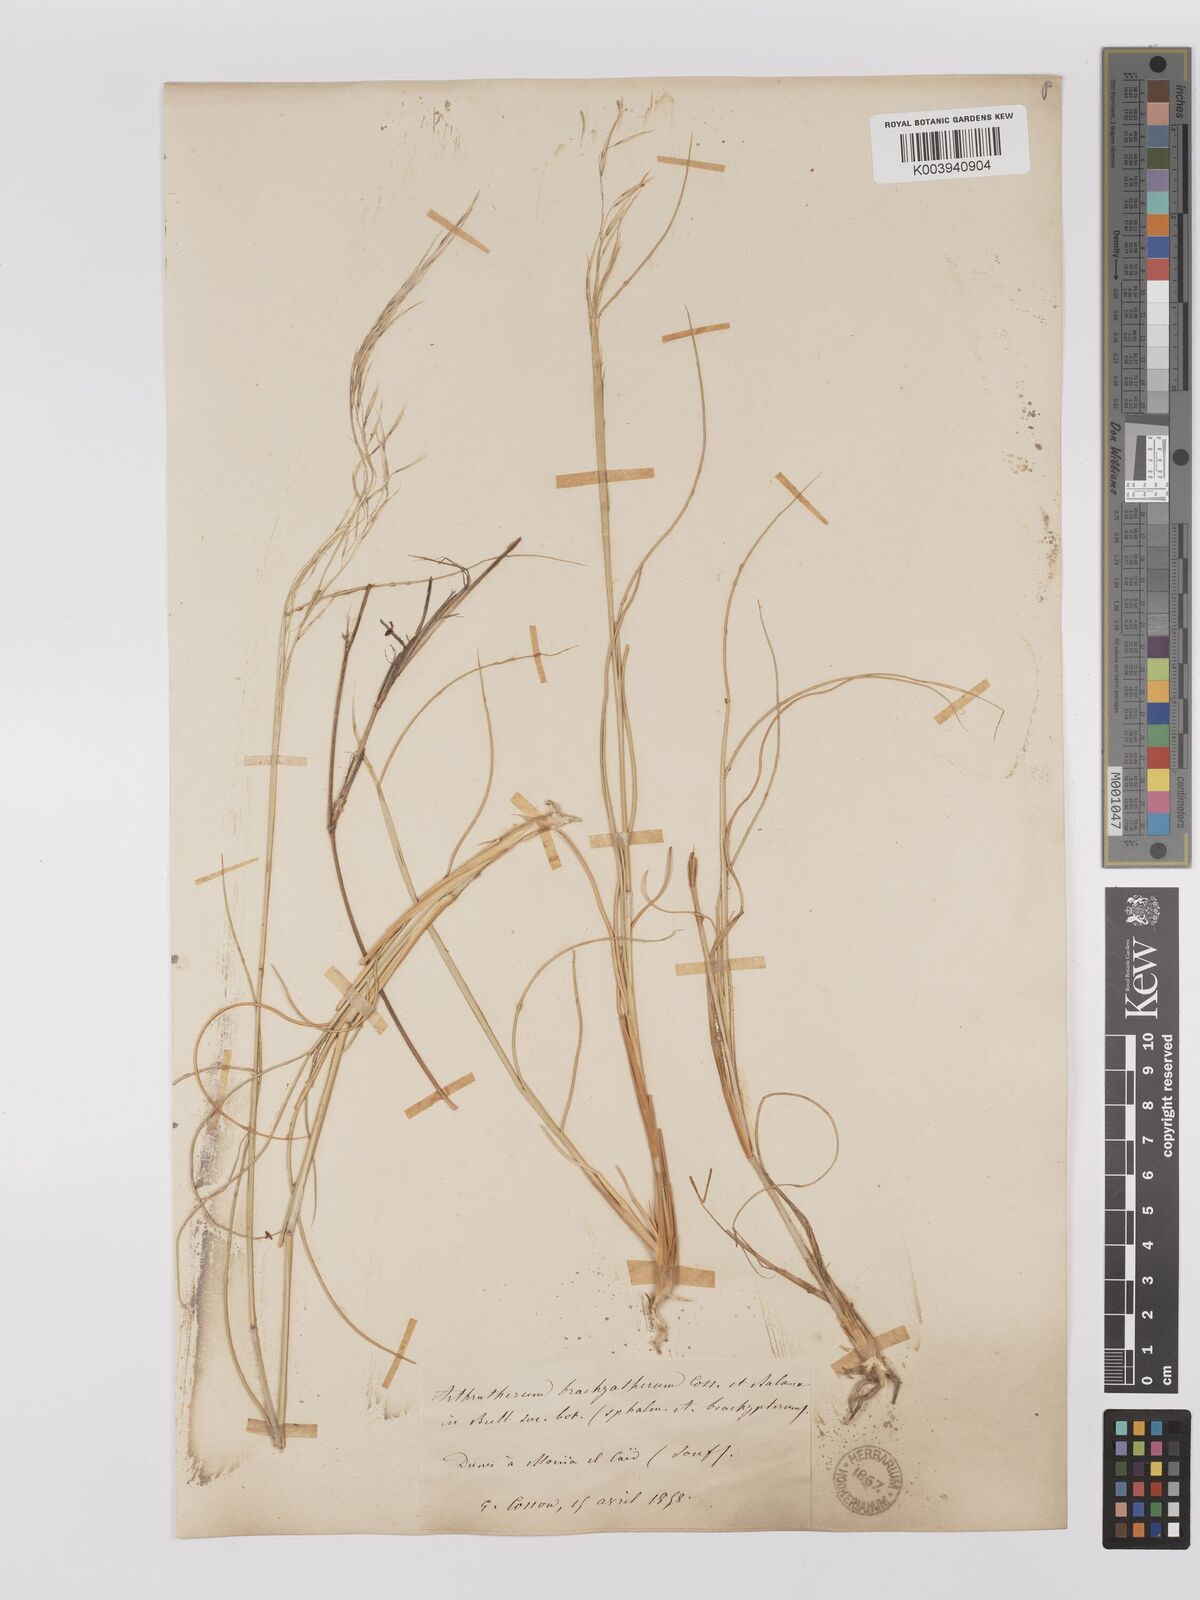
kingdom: Plantae
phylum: Tracheophyta
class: Liliopsida
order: Poales
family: Poaceae
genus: Stipagrostis
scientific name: Stipagrostis acutiflora
